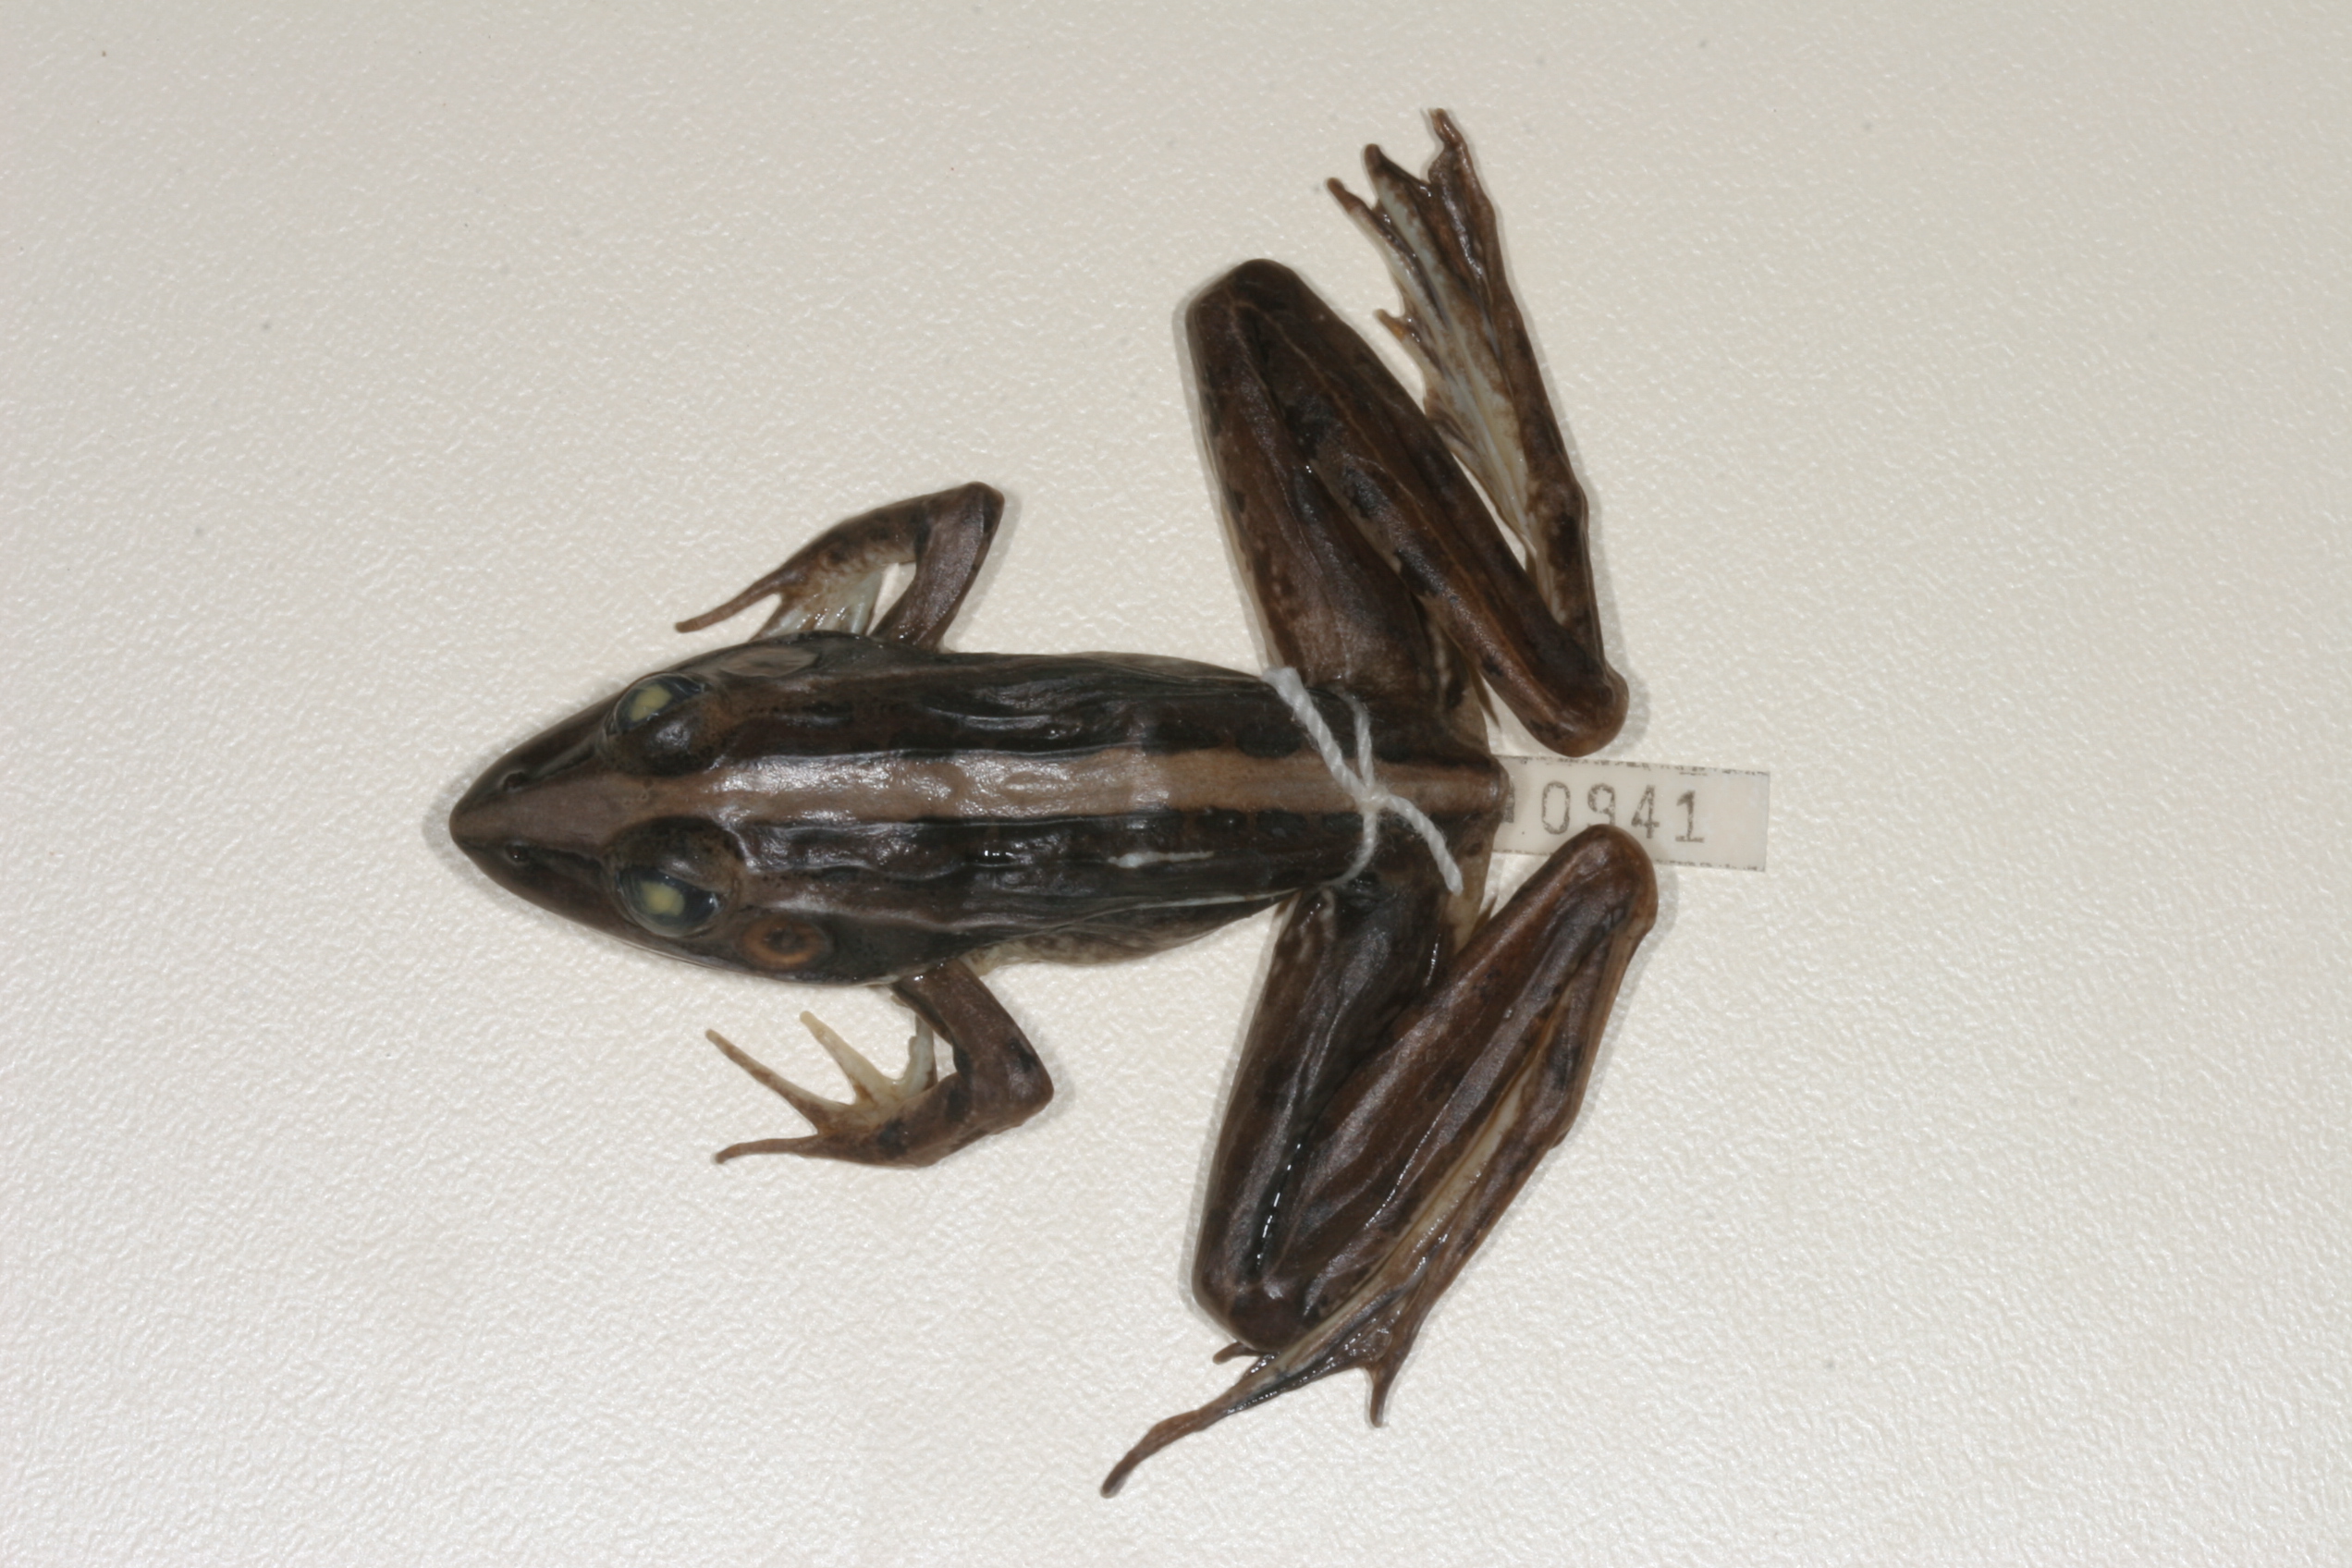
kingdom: Animalia
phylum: Chordata
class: Amphibia
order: Anura
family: Ptychadenidae
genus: Ptychadena
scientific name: Ptychadena mascareniensis
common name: Mascarene grass frog
